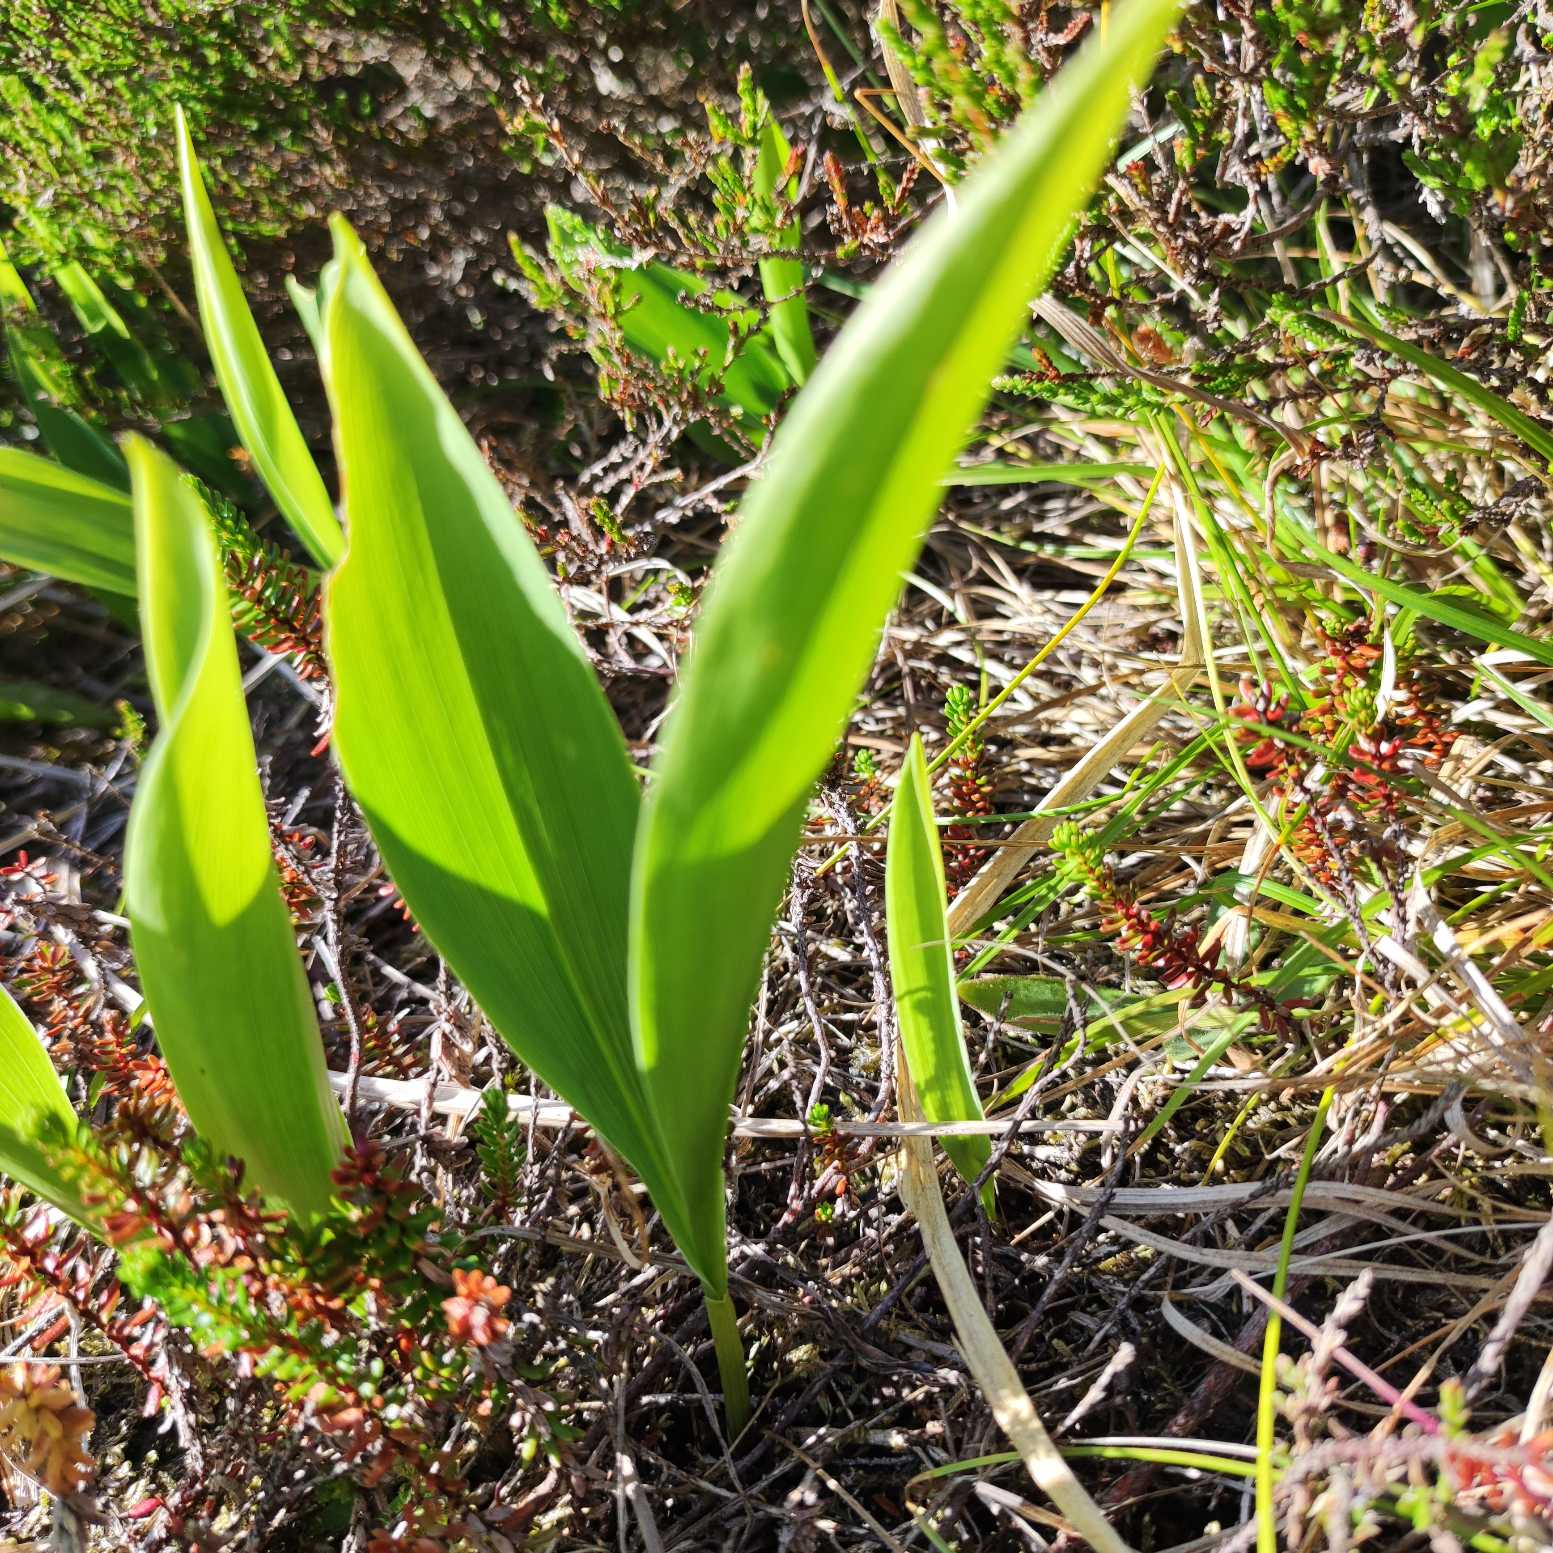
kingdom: Plantae
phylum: Tracheophyta
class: Liliopsida
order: Asparagales
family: Asparagaceae
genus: Convallaria
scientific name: Convallaria majalis
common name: Liljekonval
